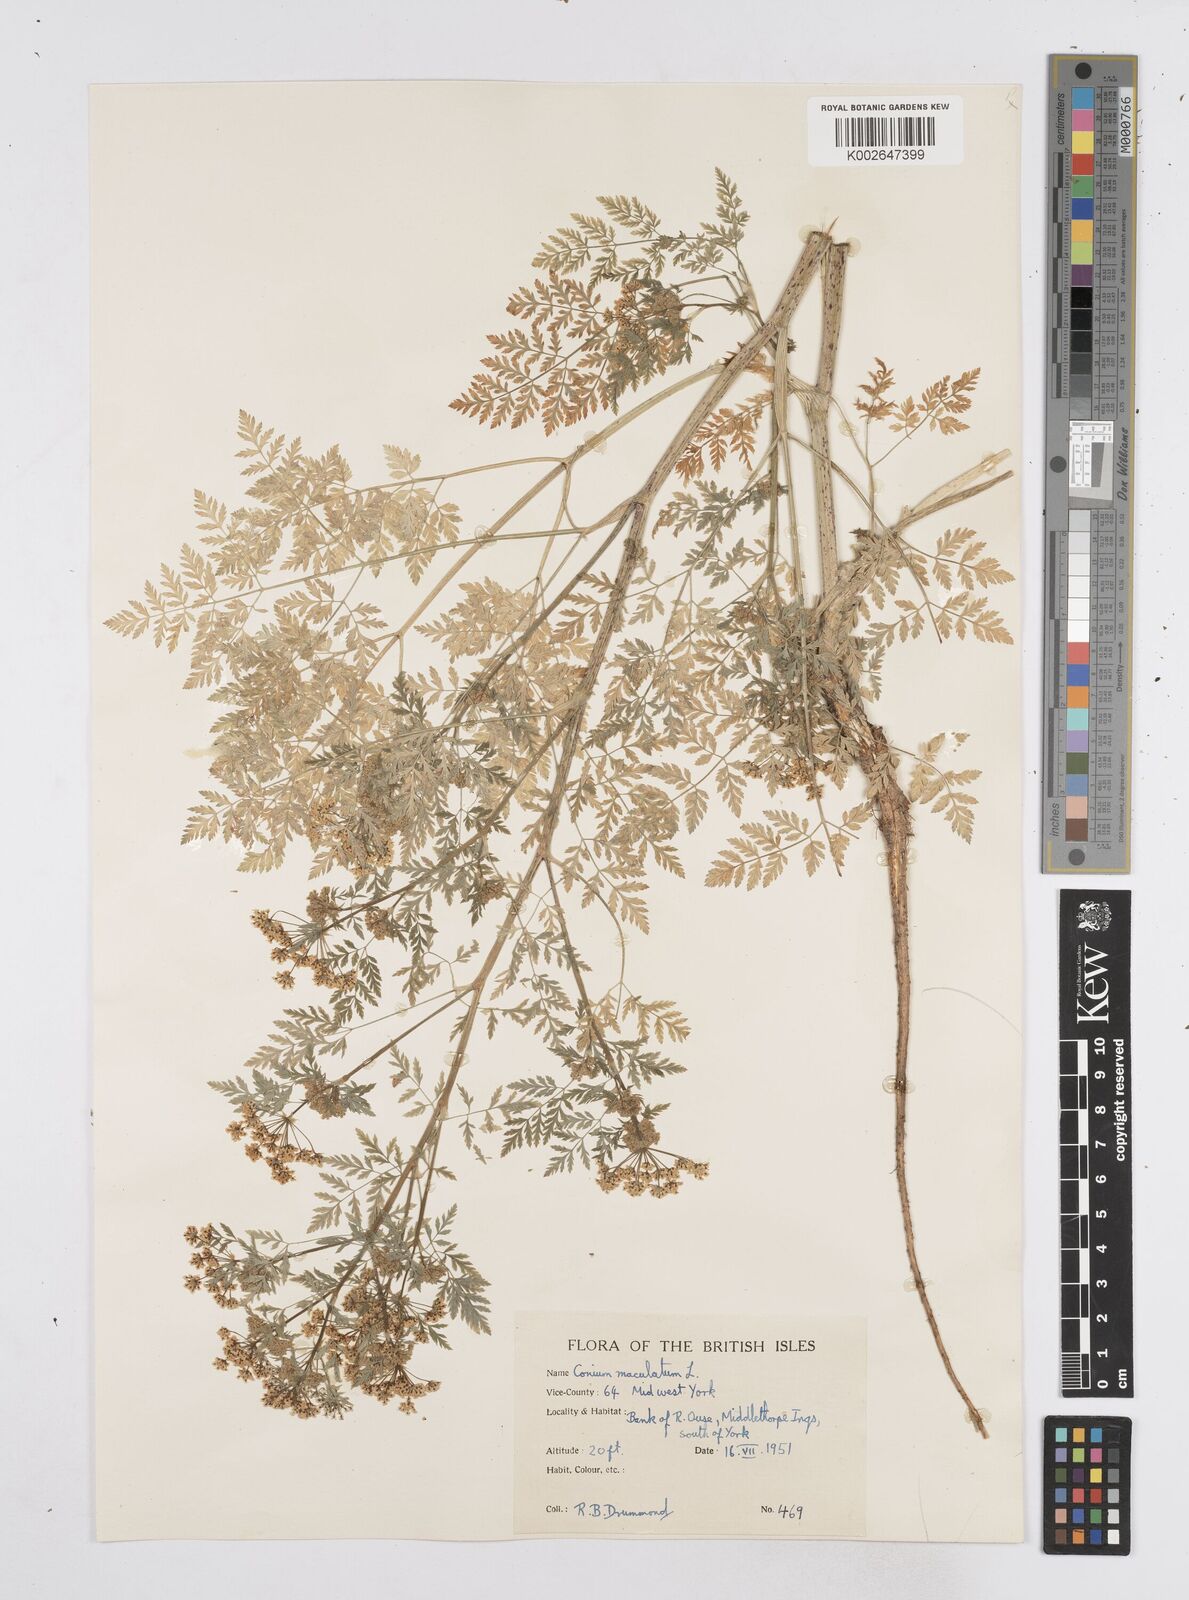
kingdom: Plantae
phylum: Tracheophyta
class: Magnoliopsida
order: Apiales
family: Apiaceae
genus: Conium
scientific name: Conium maculatum
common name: Hemlock
